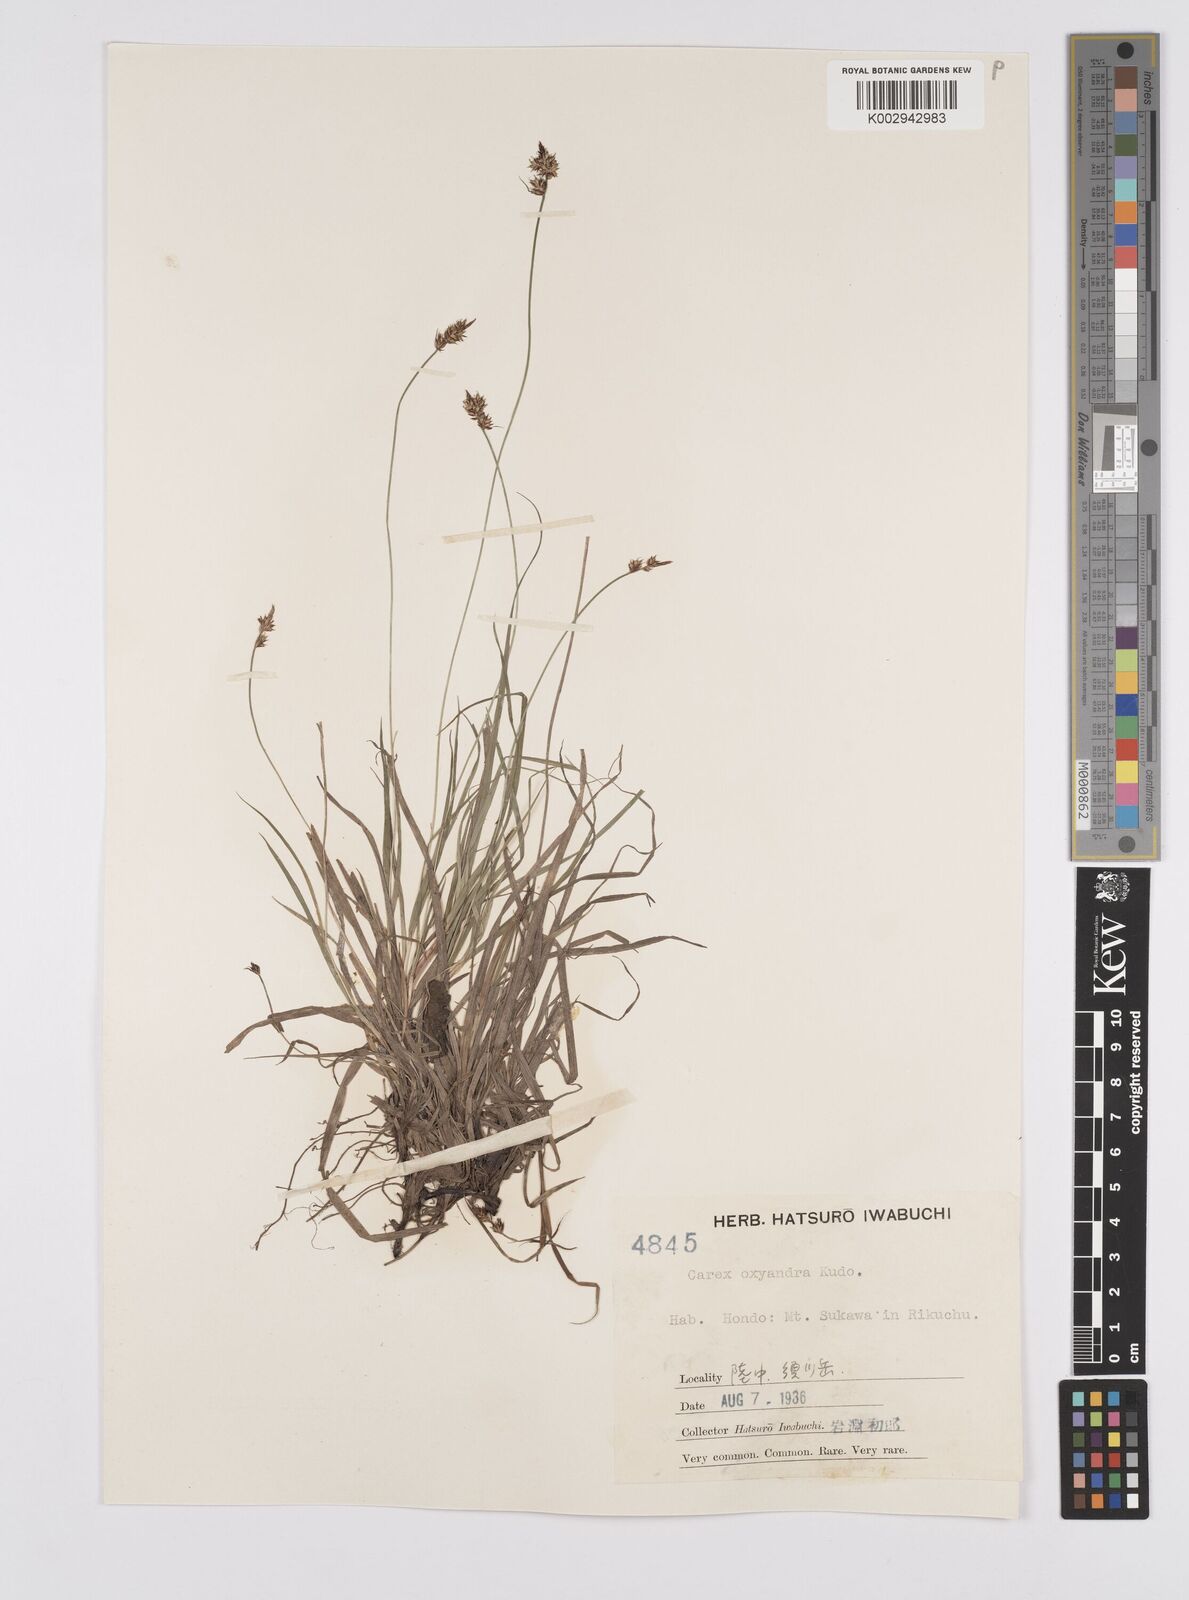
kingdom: Plantae
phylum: Tracheophyta
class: Liliopsida
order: Poales
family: Cyperaceae
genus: Carex
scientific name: Carex oxyandra
